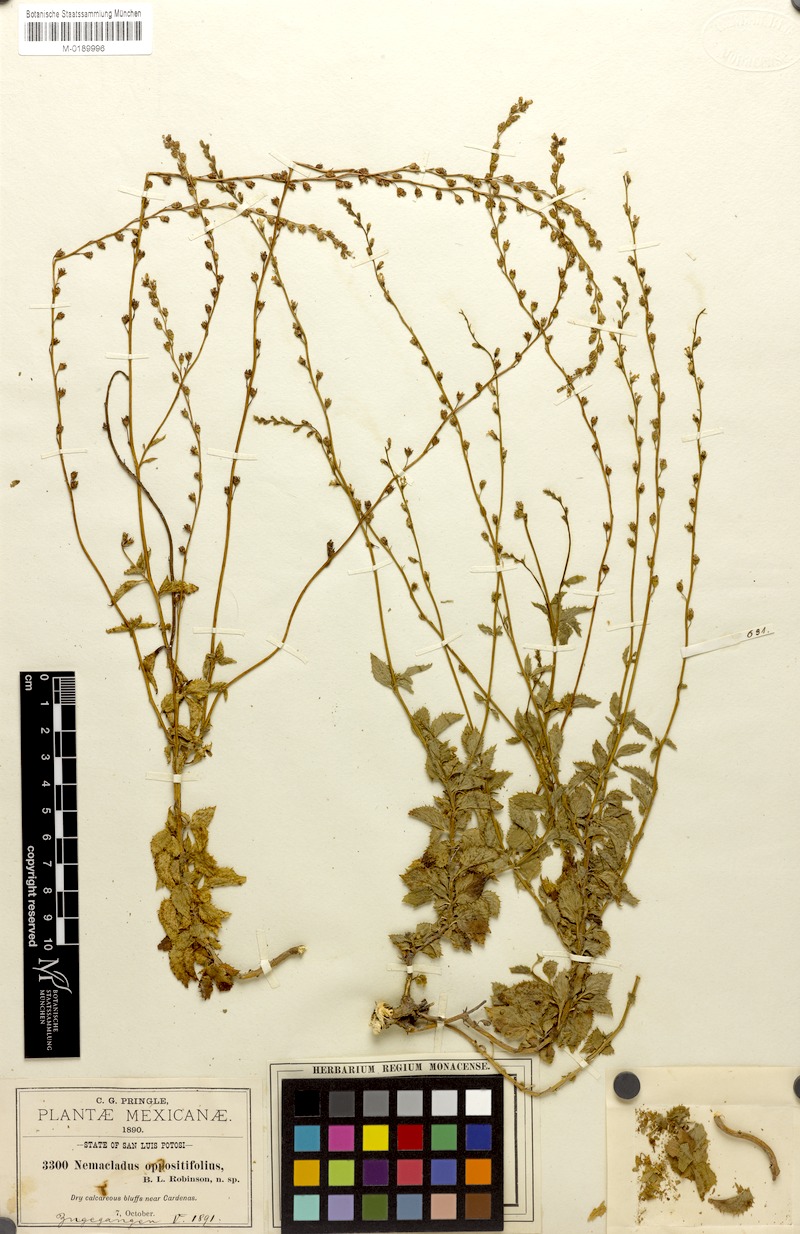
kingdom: Plantae
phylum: Tracheophyta
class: Magnoliopsida
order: Asterales
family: Campanulaceae
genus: Pseudonemacladus
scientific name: Pseudonemacladus oppositifolius
